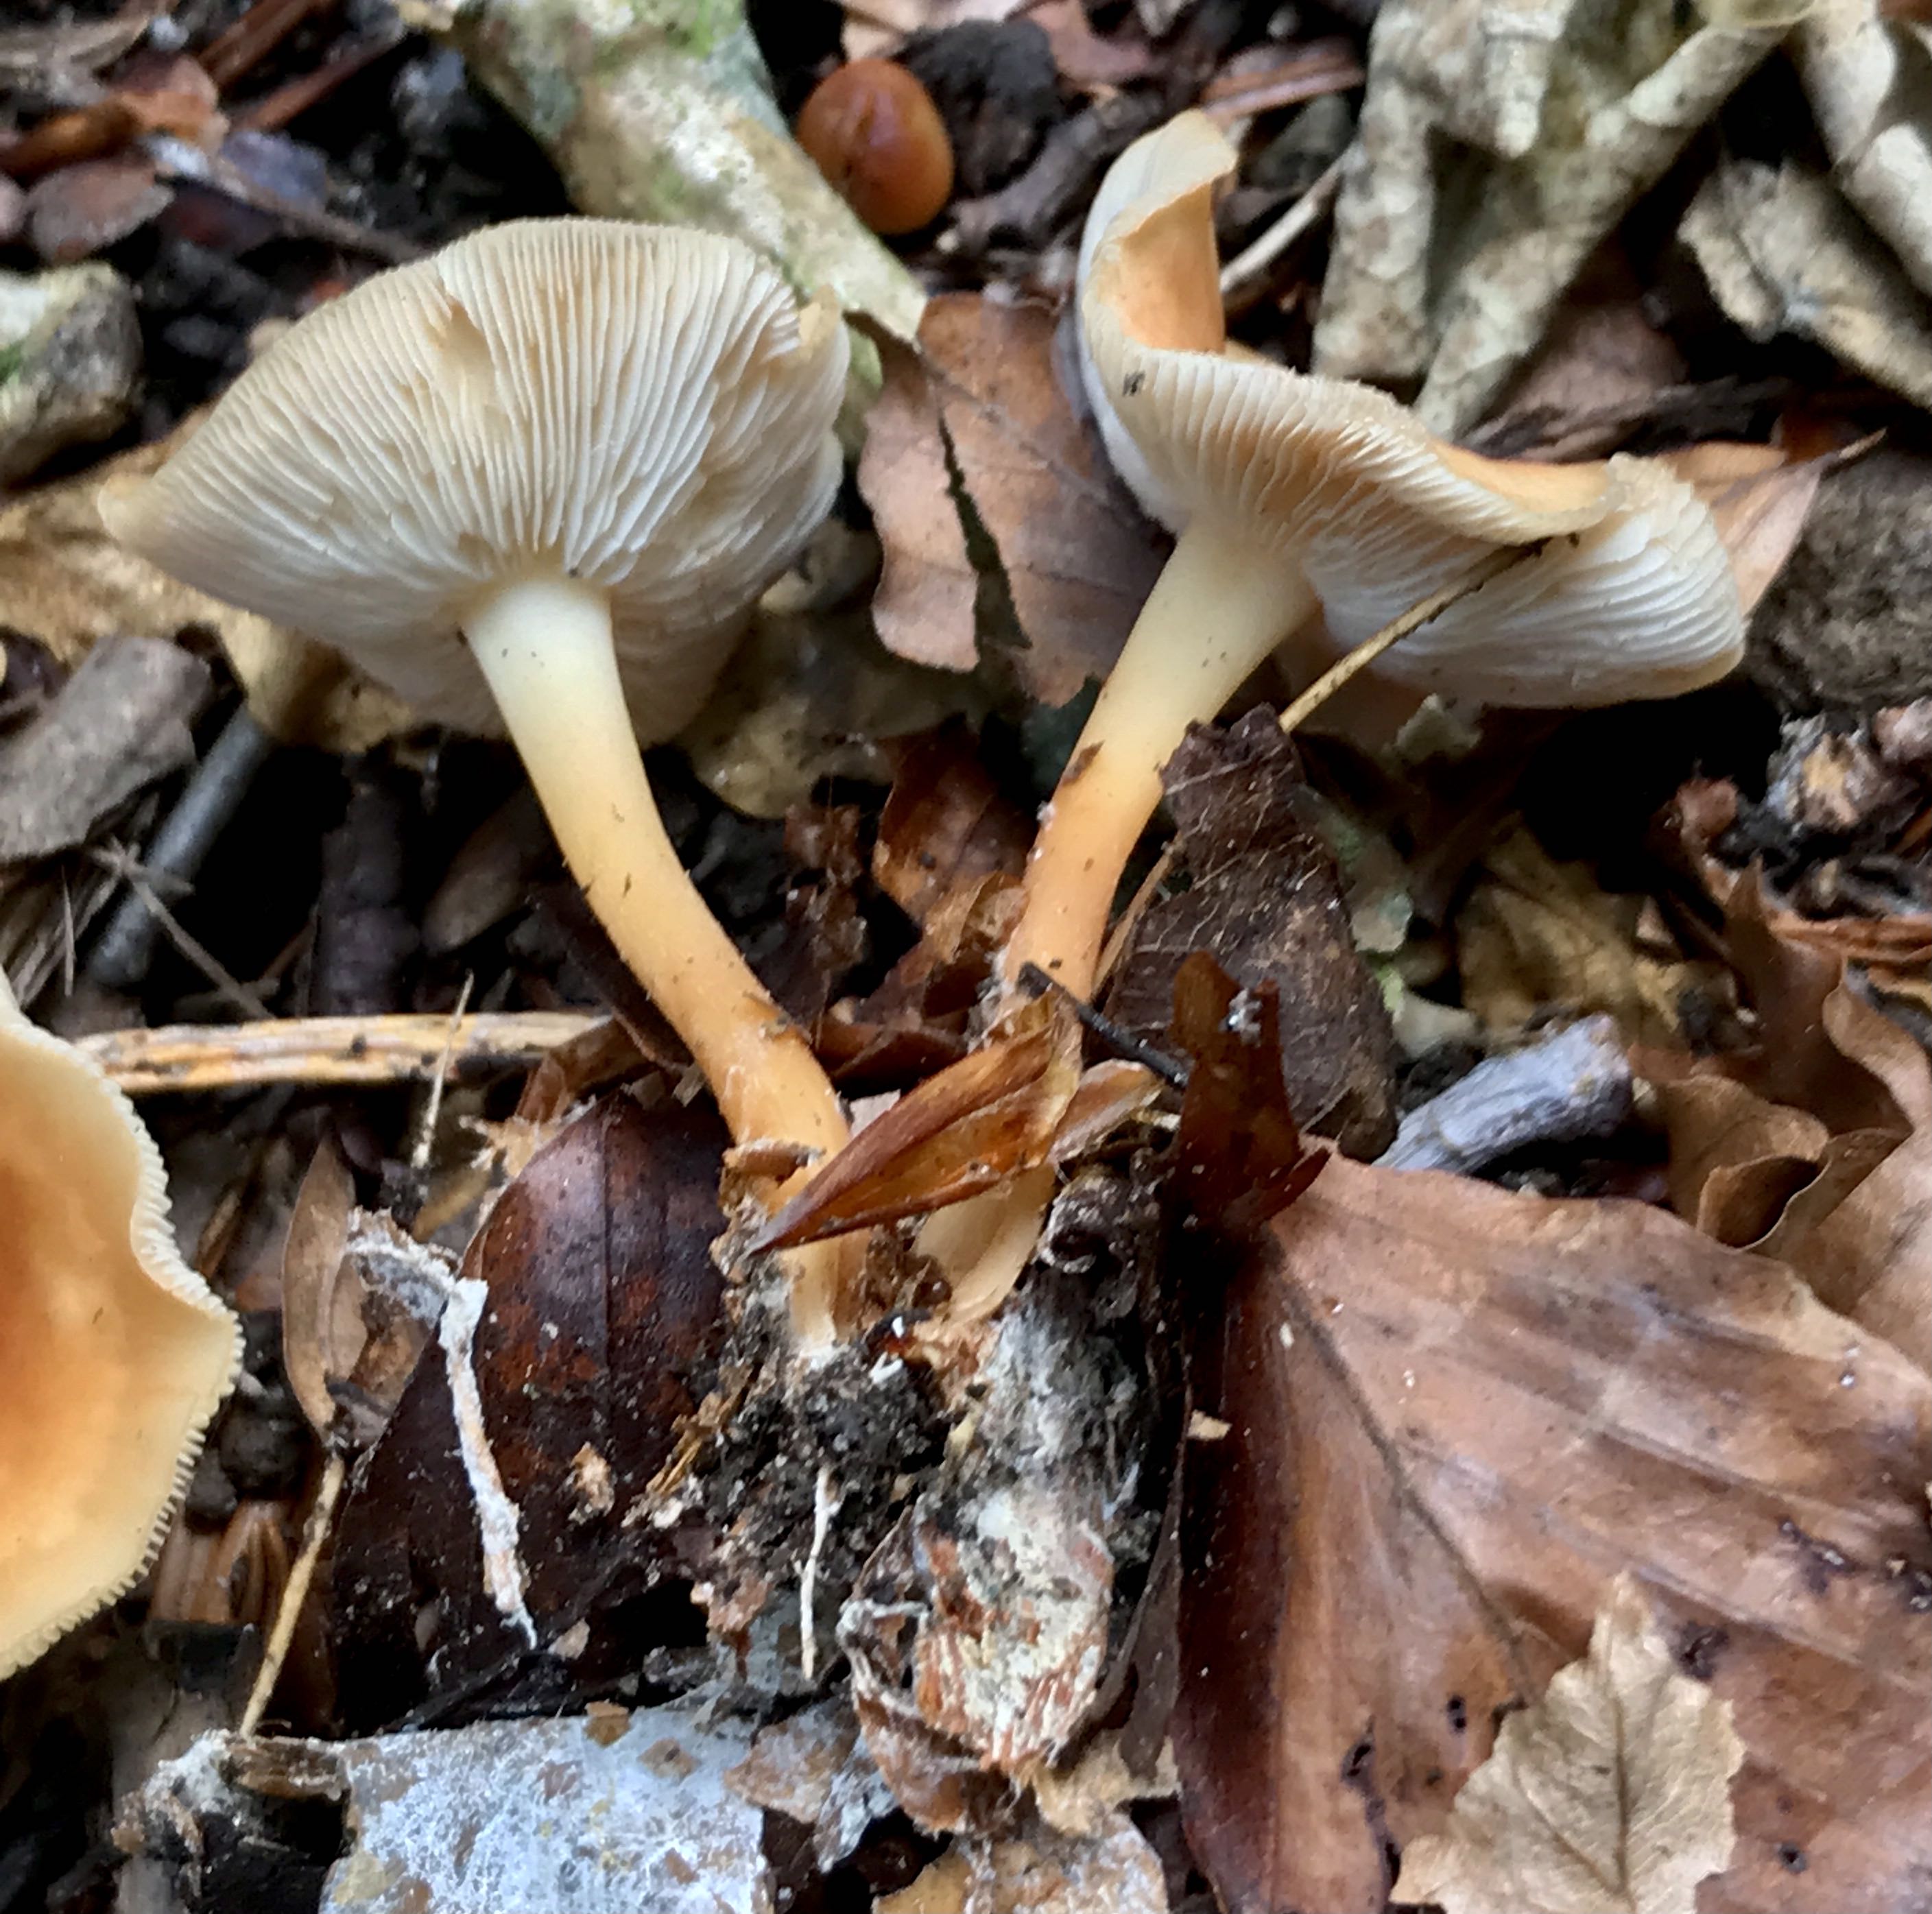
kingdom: Fungi
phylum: Basidiomycota
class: Agaricomycetes
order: Agaricales
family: Omphalotaceae
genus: Gymnopus
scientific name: Gymnopus dryophilus
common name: løv-fladhat
